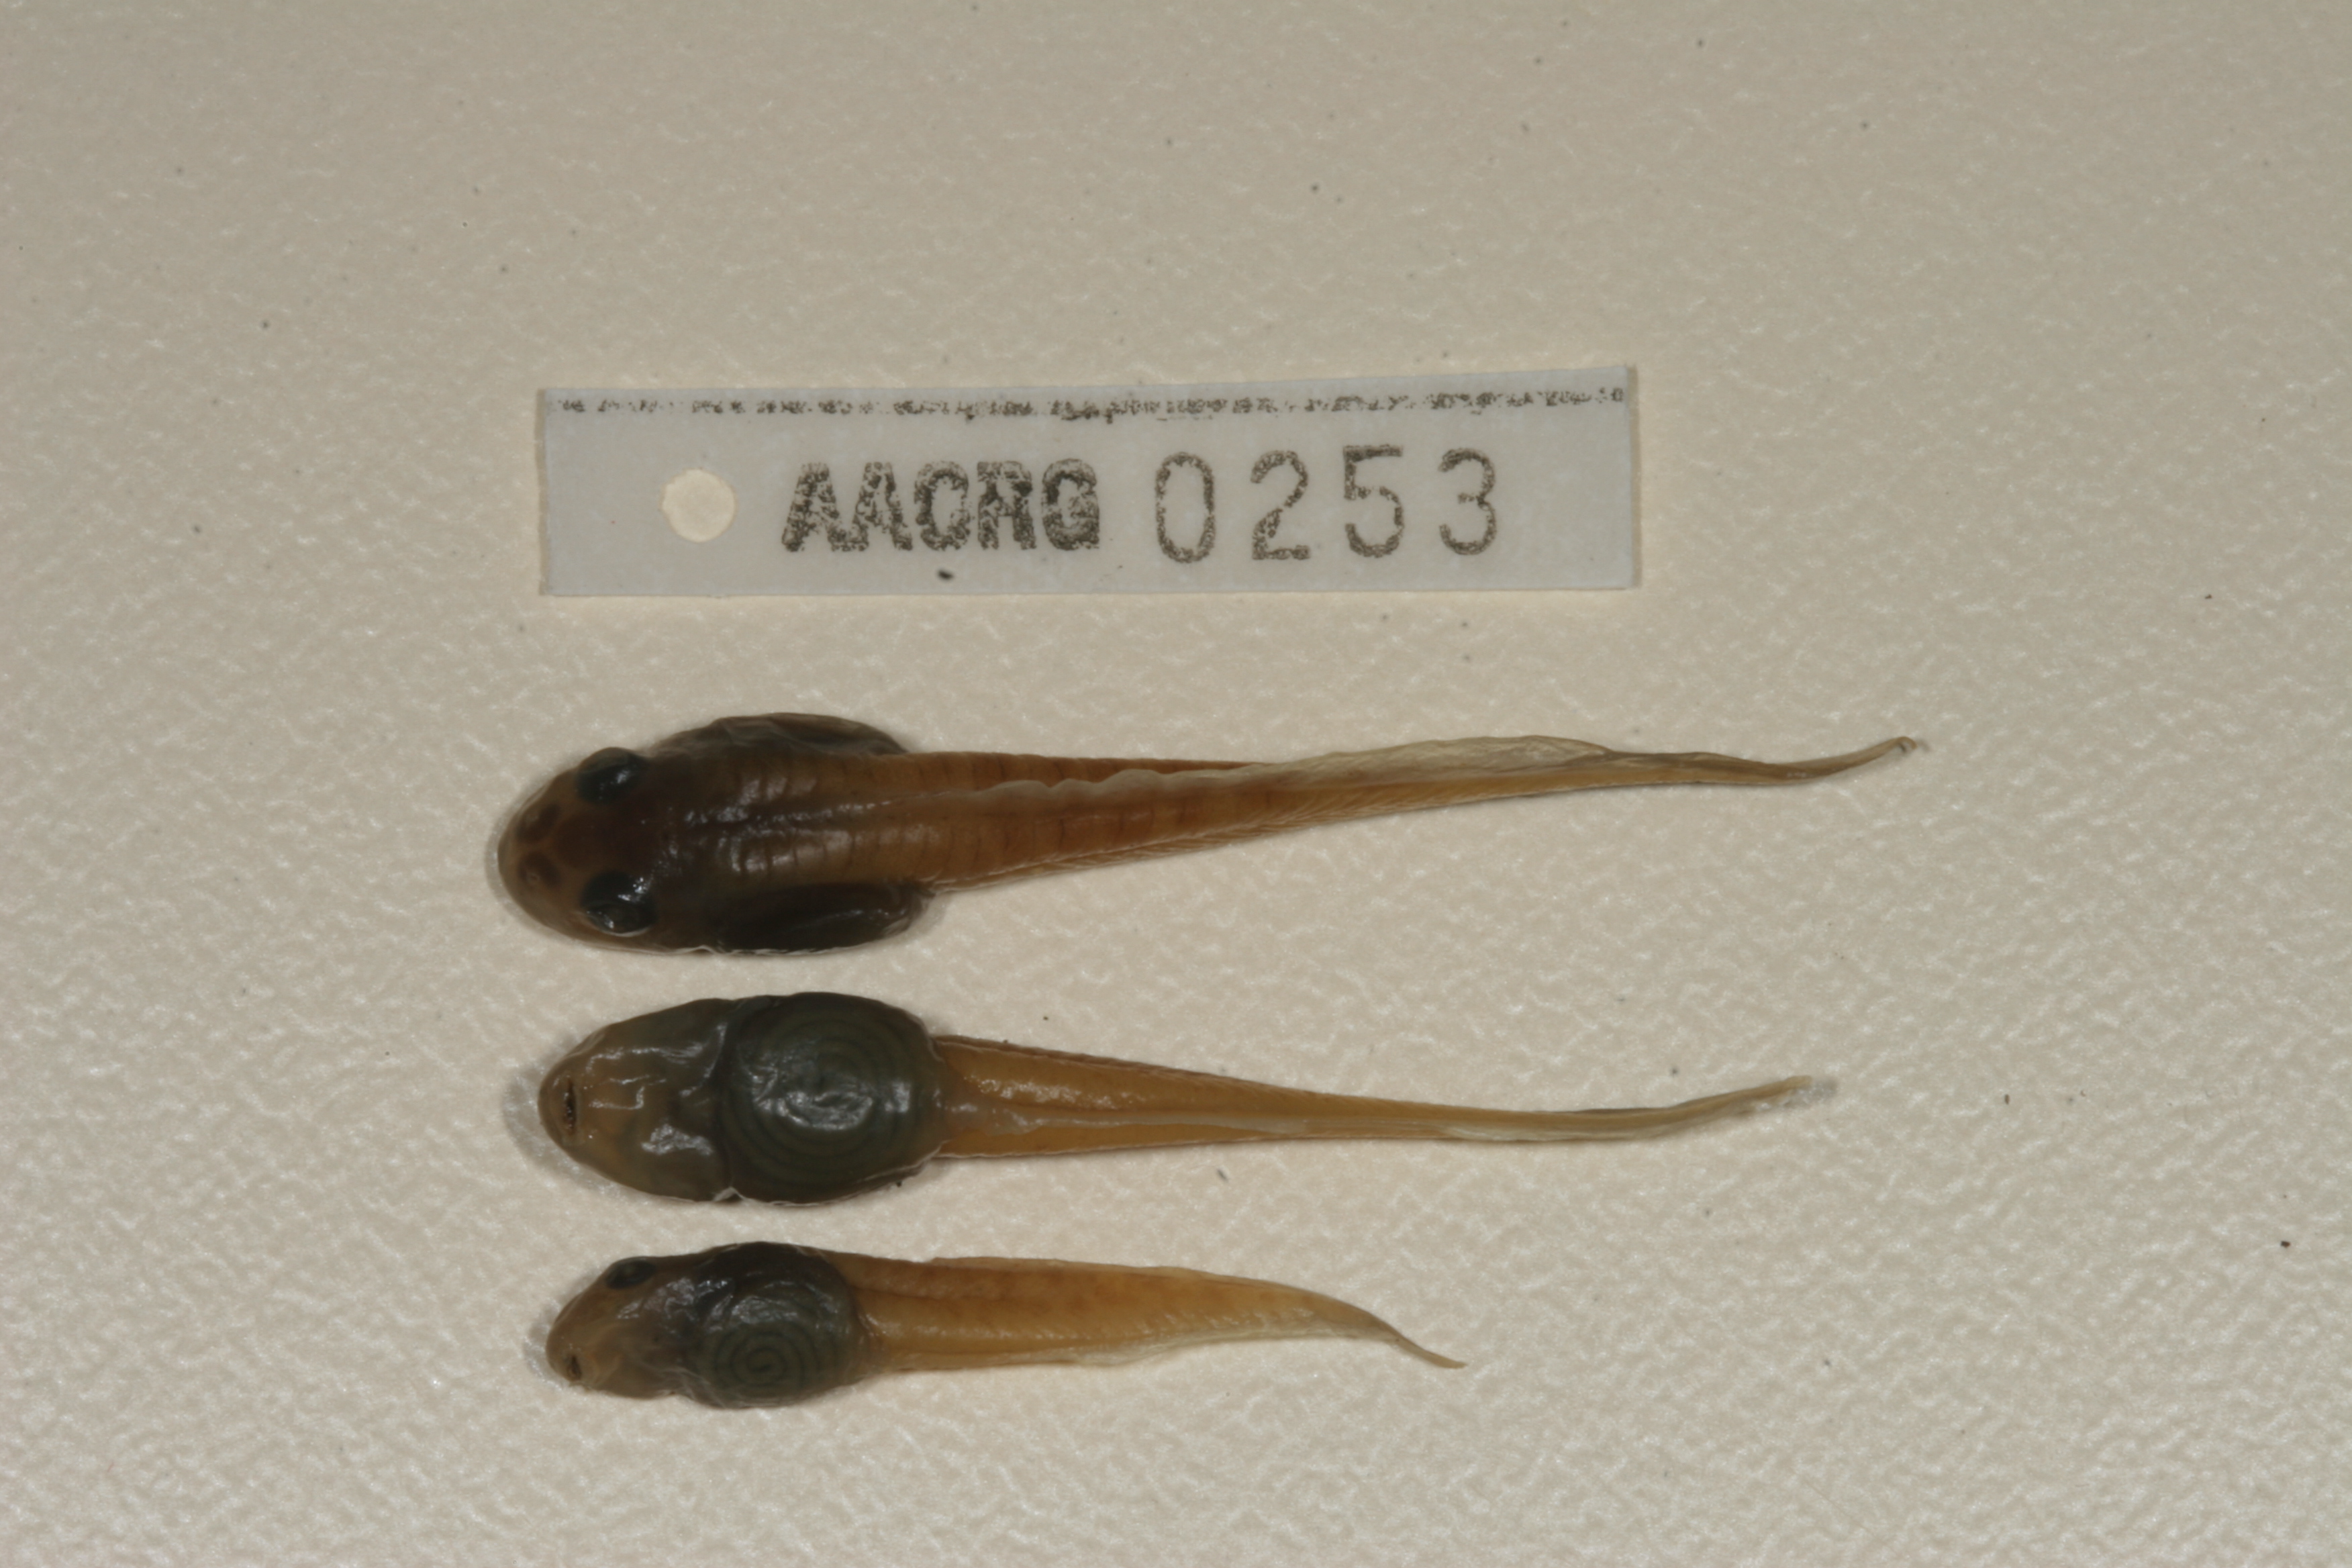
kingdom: Animalia
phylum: Chordata
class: Amphibia
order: Anura
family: Pyxicephalidae
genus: Amietia
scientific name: Amietia fuscigula
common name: Cape rana
